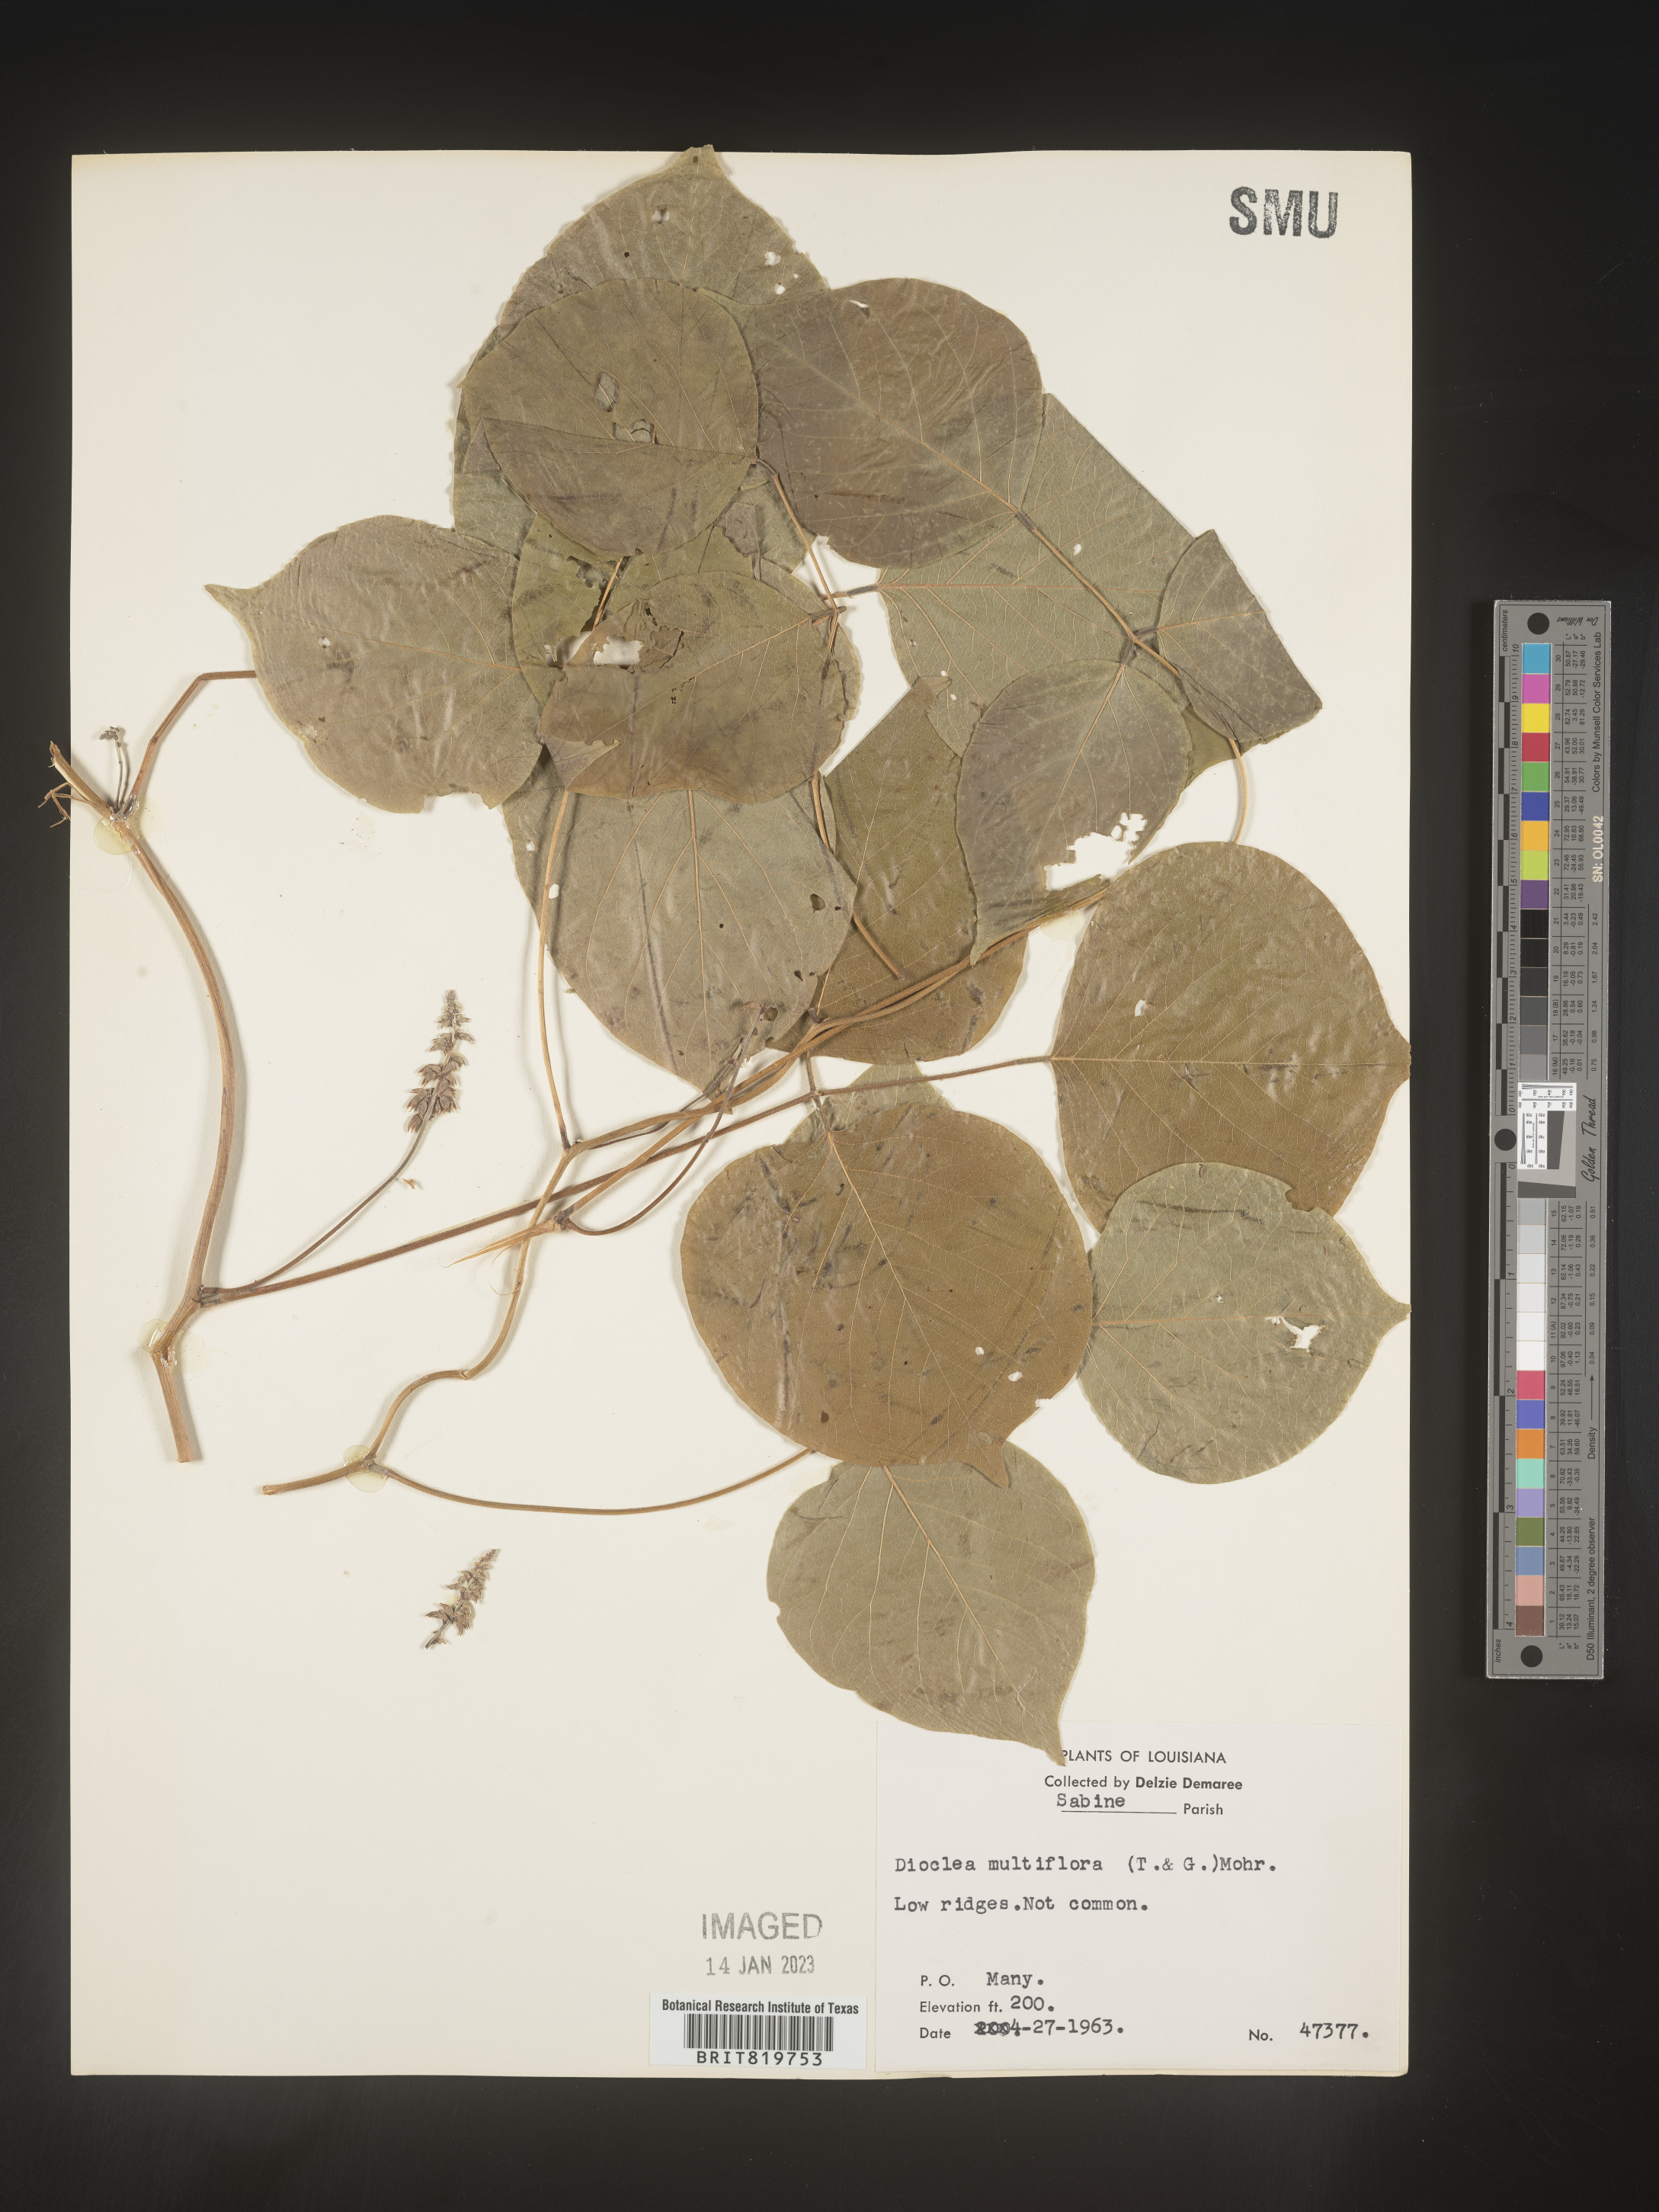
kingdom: Plantae
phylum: Tracheophyta
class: Magnoliopsida
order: Fabales
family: Fabaceae
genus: Dioclea
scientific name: Dioclea
